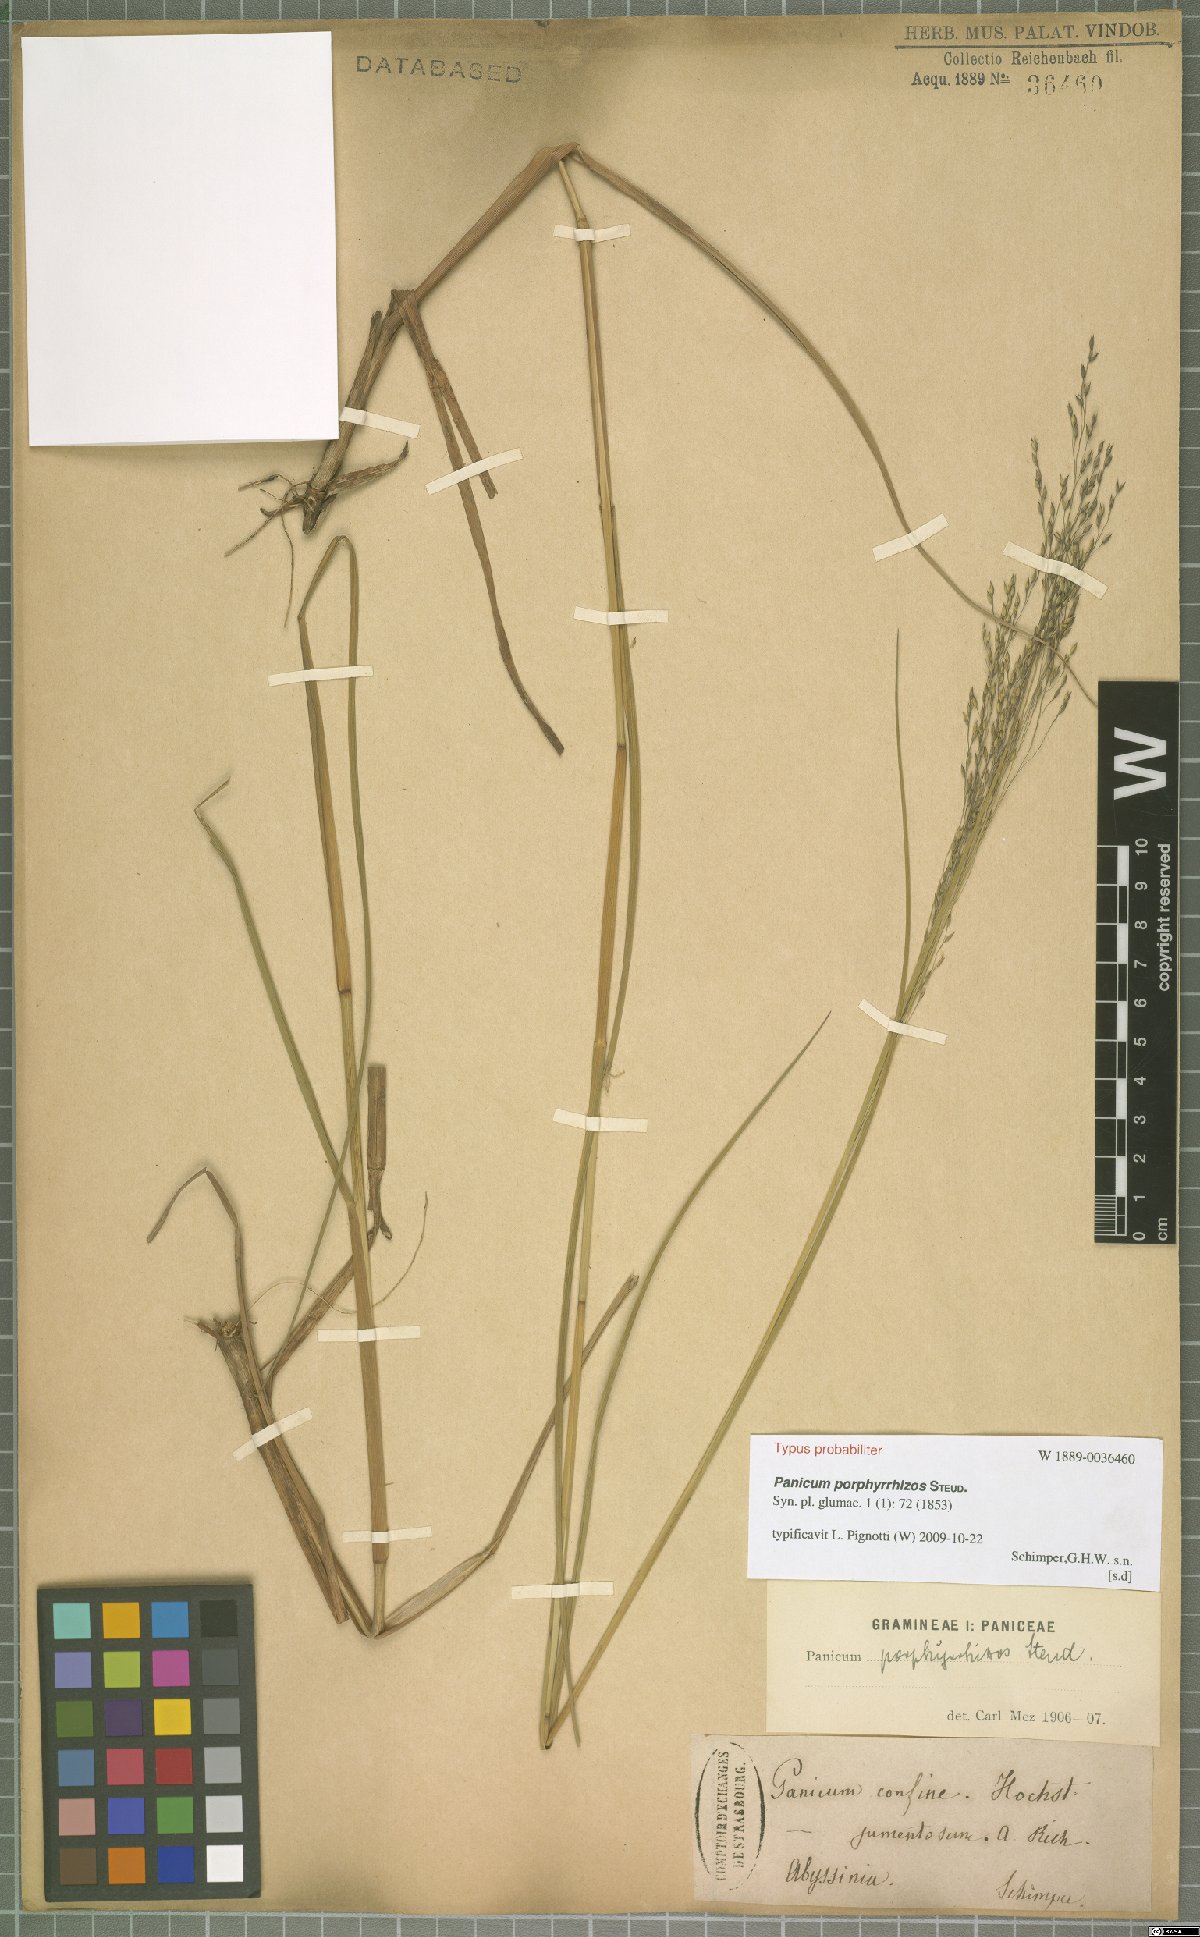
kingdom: Plantae
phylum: Tracheophyta
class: Liliopsida
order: Poales
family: Poaceae
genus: Panicum
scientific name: Panicum porphyrrhizos
